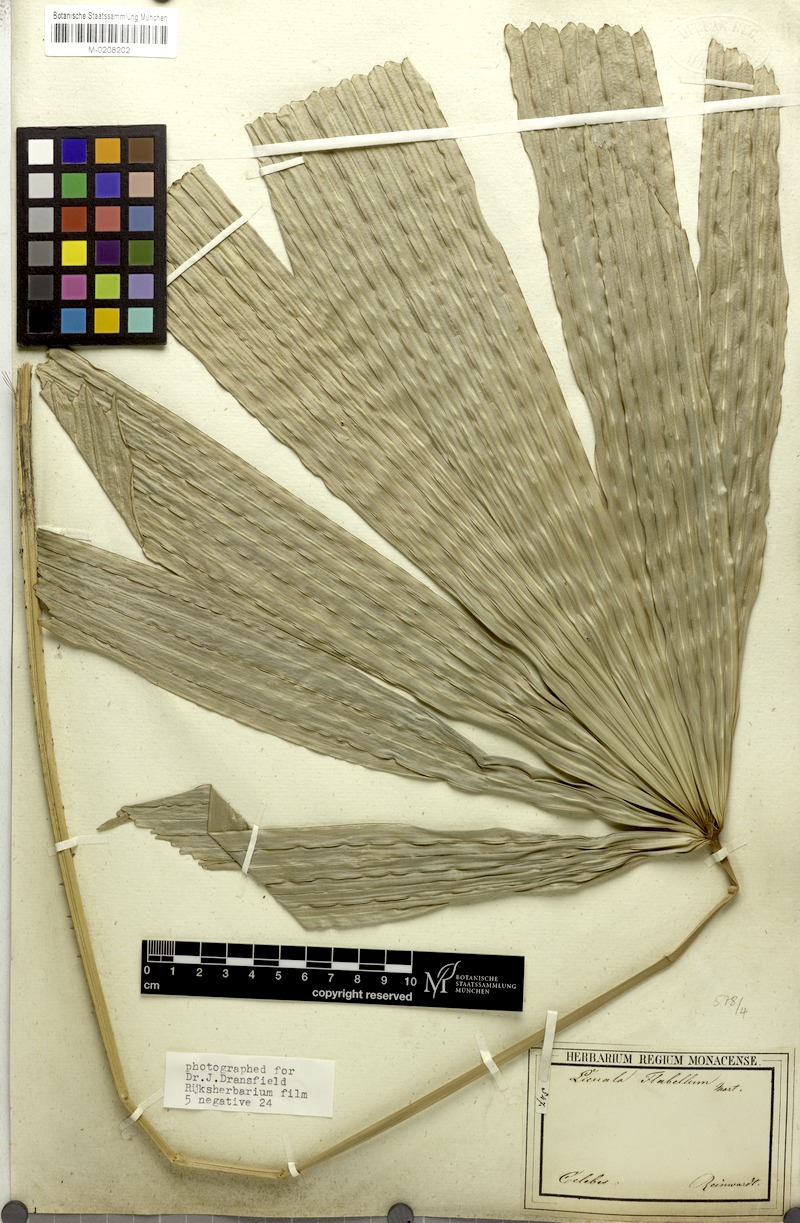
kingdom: Plantae
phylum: Tracheophyta
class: Liliopsida
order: Arecales
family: Arecaceae
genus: Lanonia
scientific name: Lanonia gracilis
